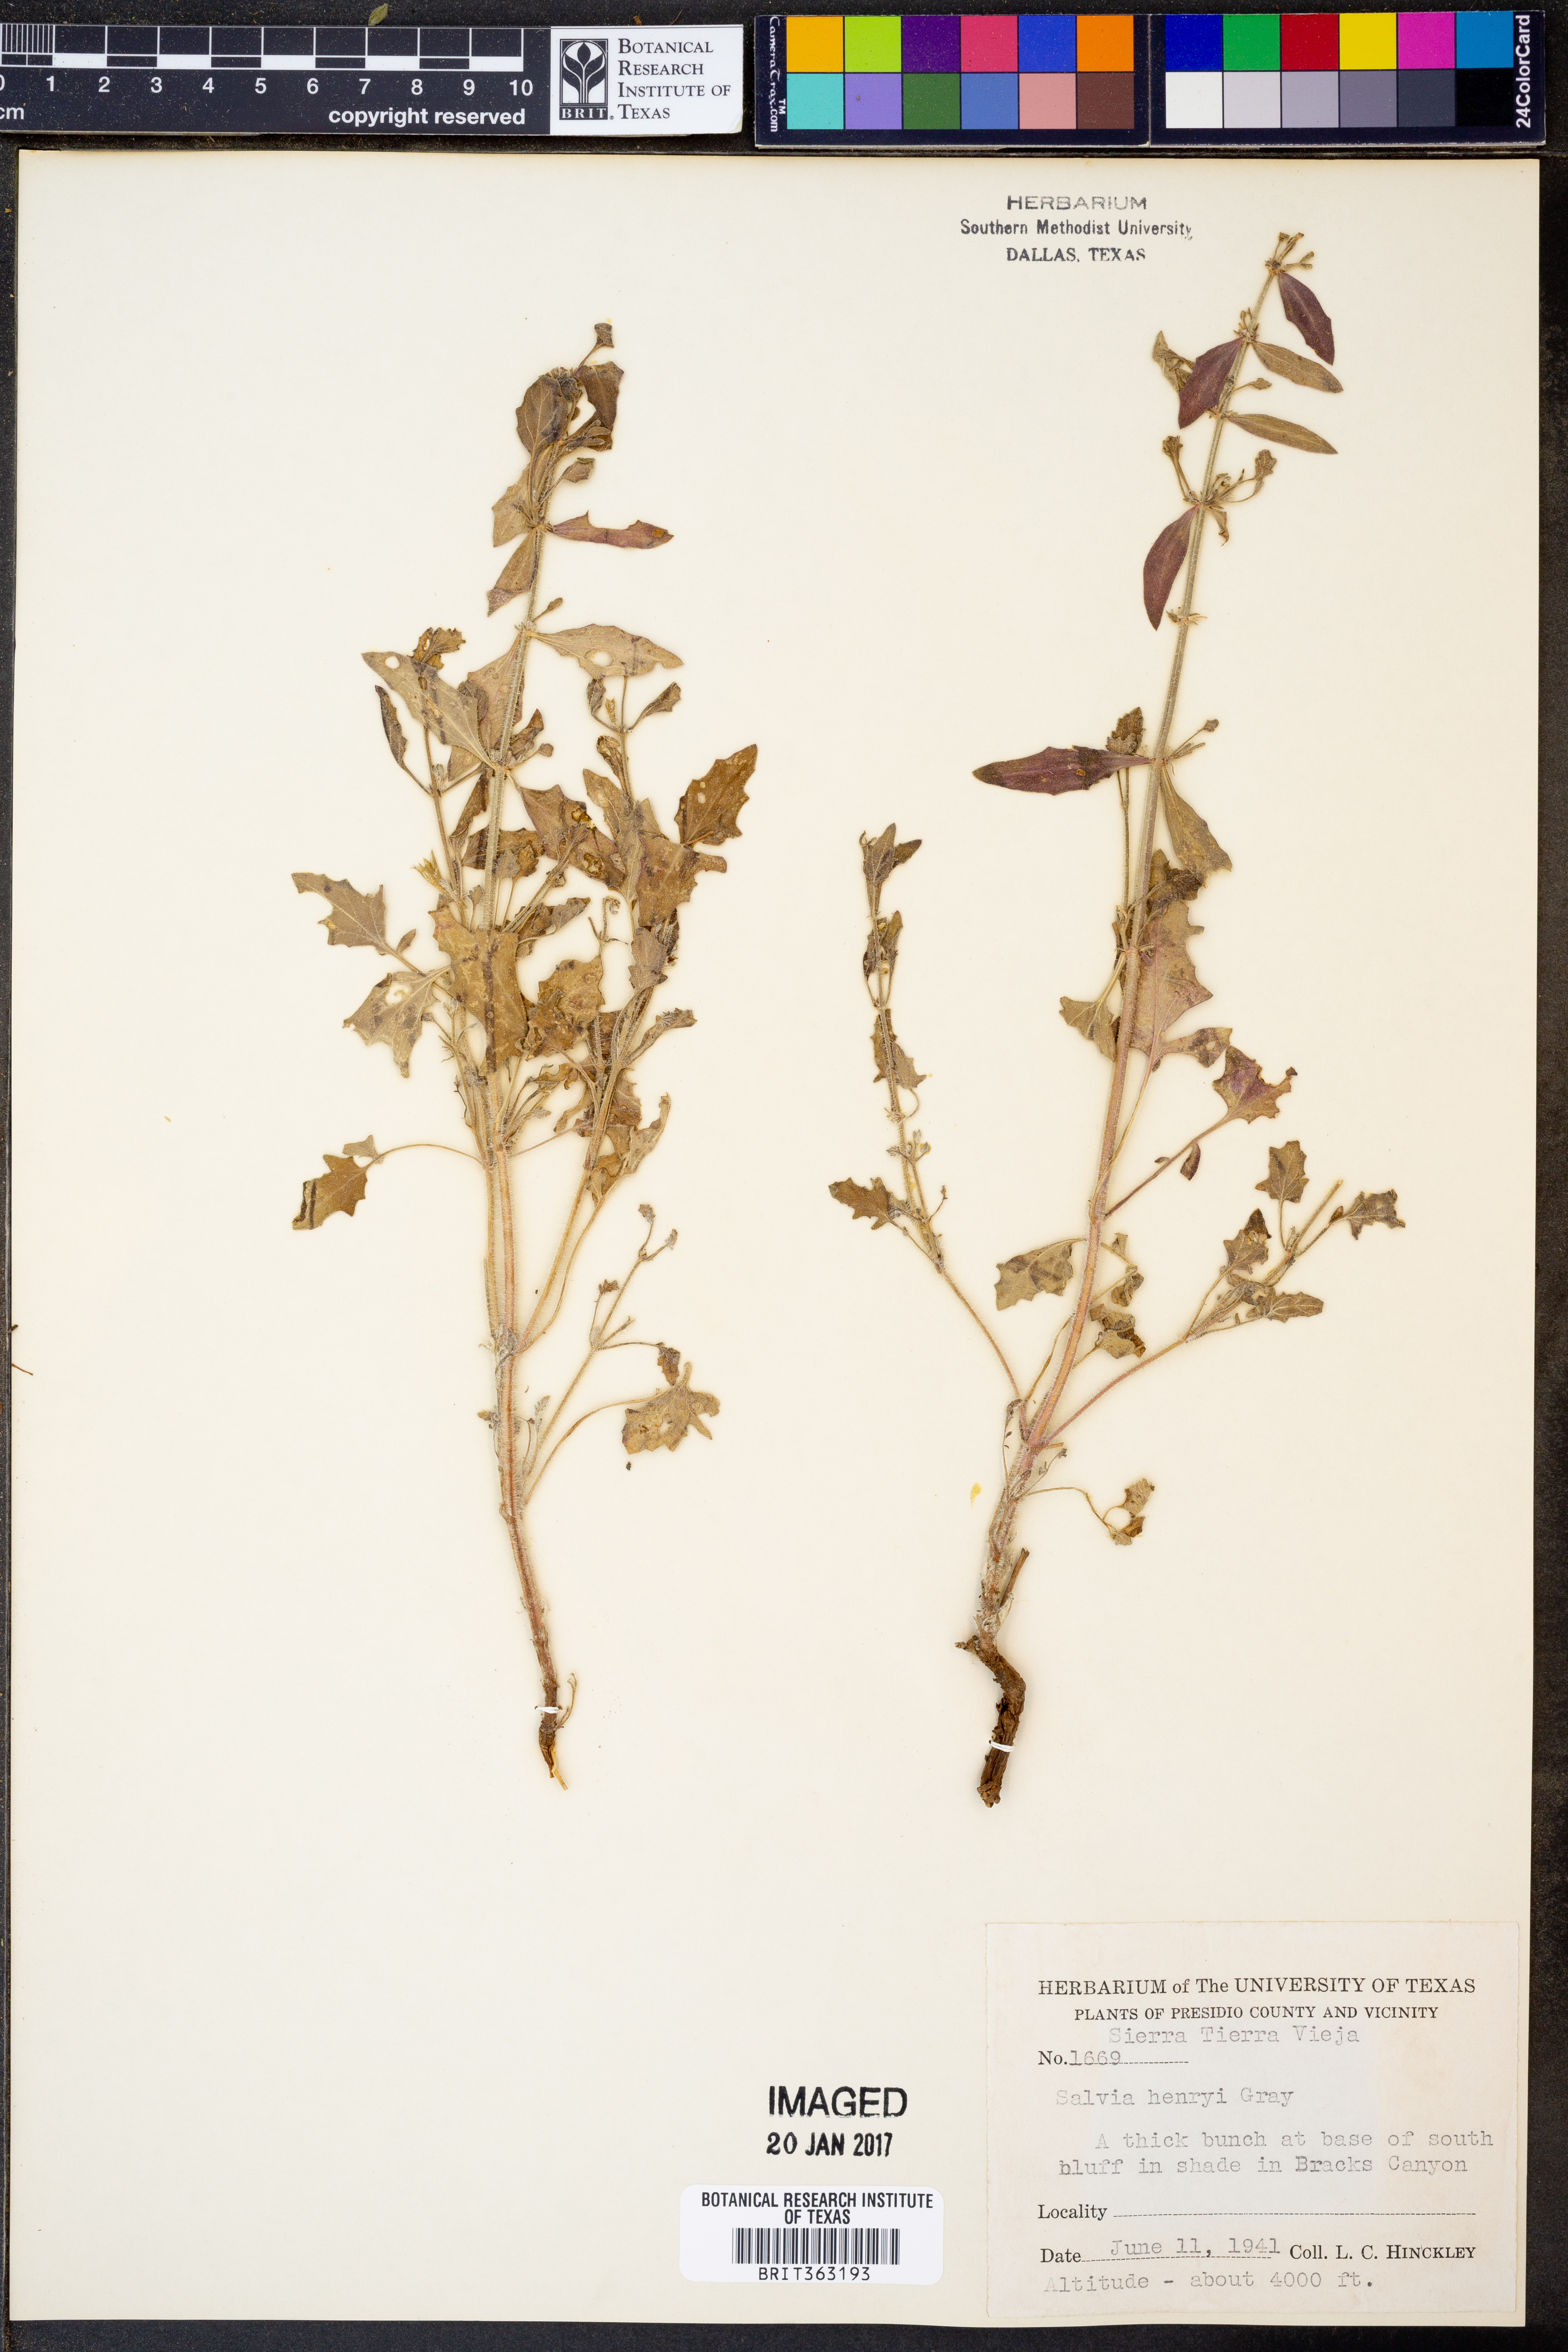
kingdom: Plantae
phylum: Tracheophyta
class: Magnoliopsida
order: Lamiales
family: Lamiaceae
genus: Salvia
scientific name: Salvia henryi
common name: Henry's sage
